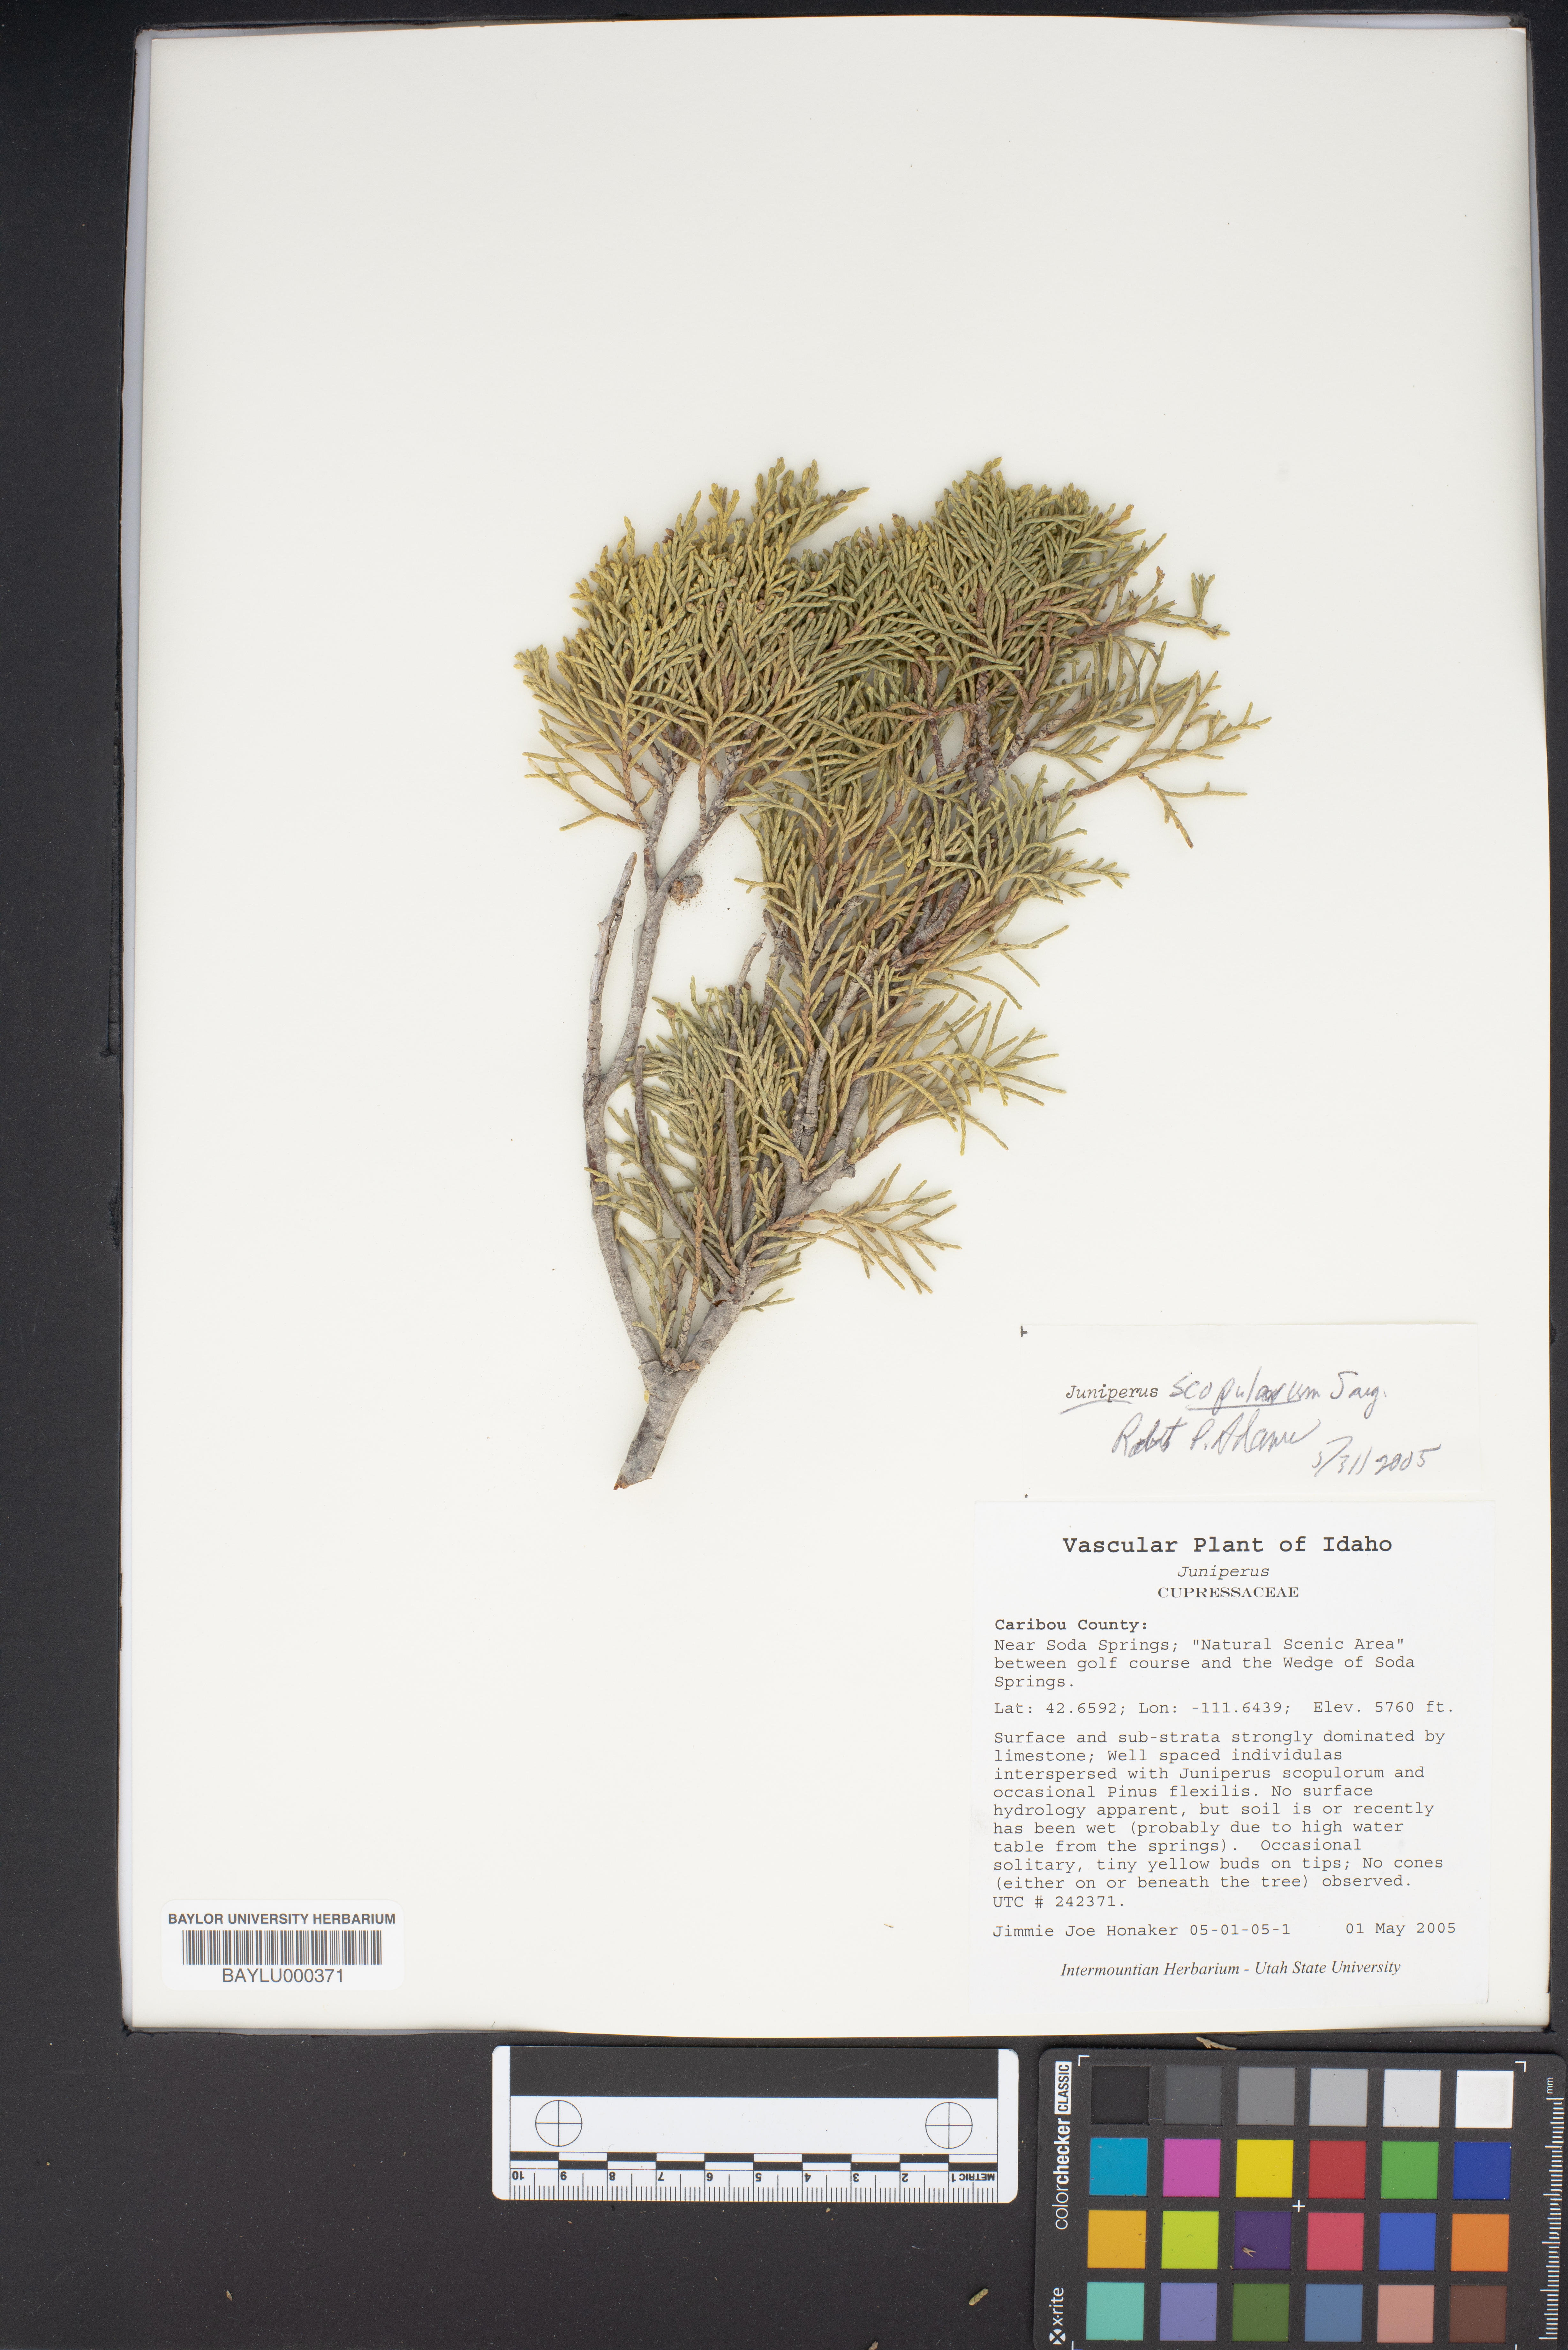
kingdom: Plantae
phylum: Tracheophyta
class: Pinopsida
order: Pinales
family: Cupressaceae
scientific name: Cupressaceae
